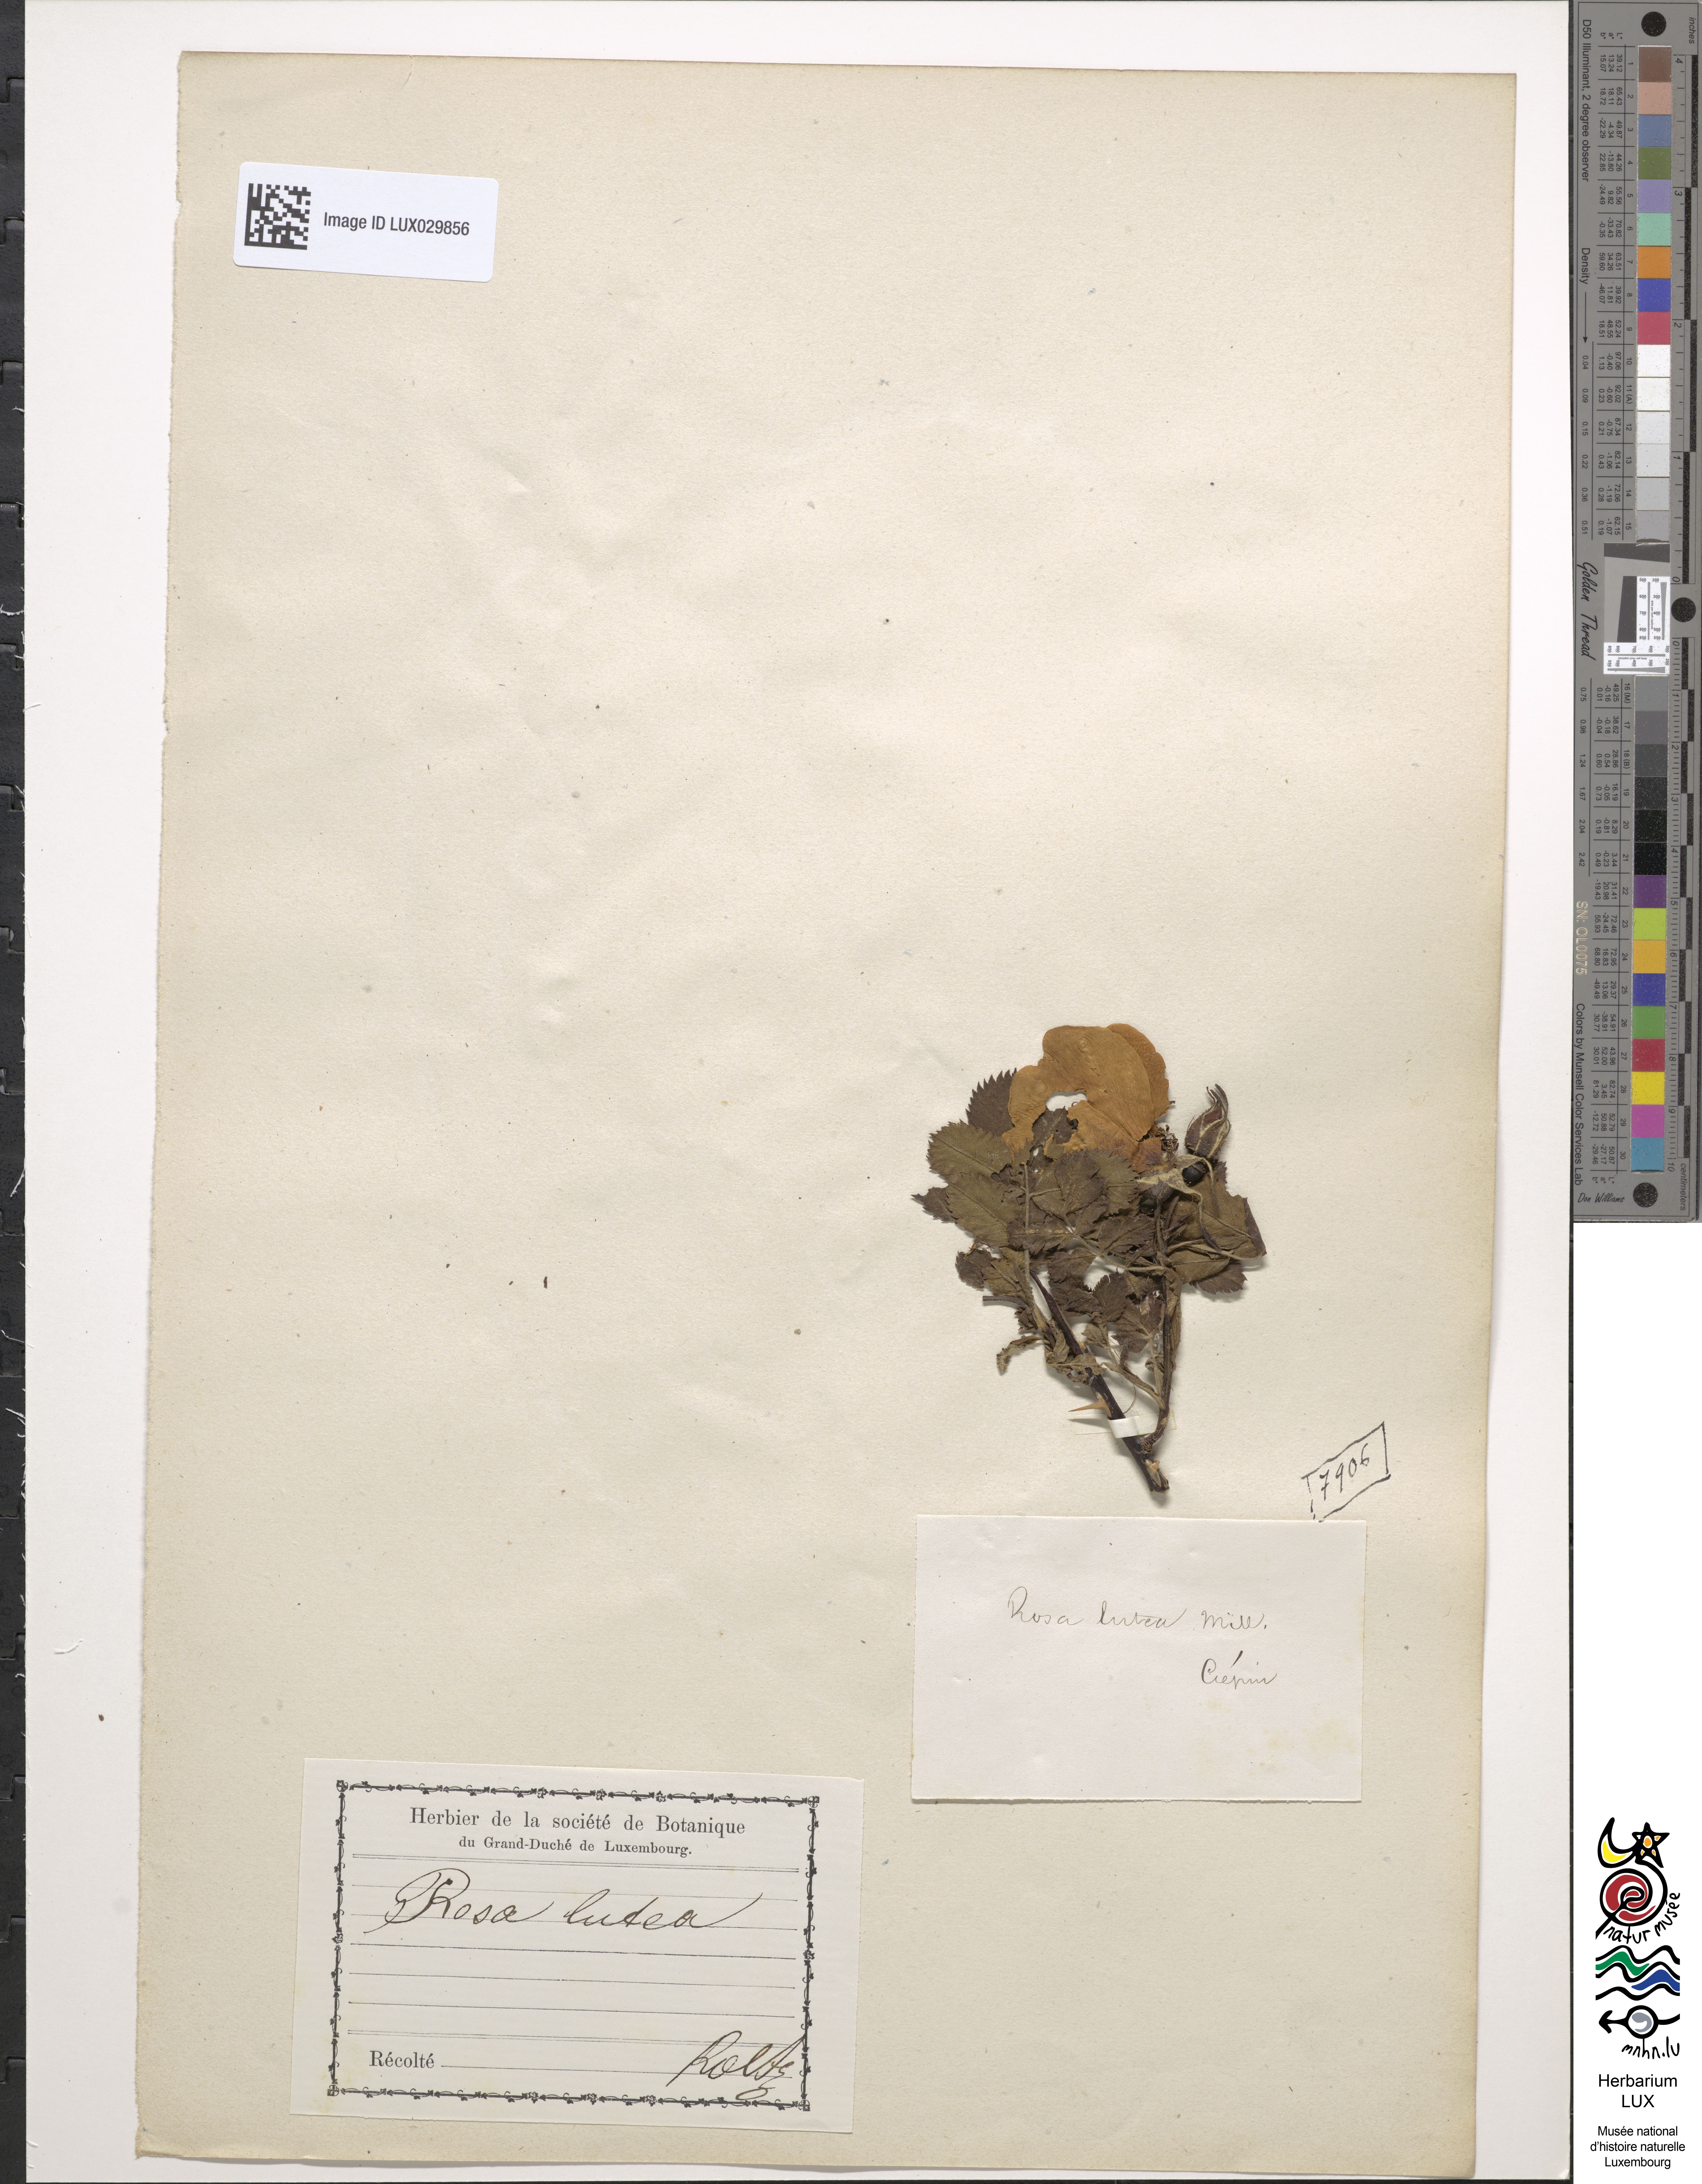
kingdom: Plantae
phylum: Tracheophyta
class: Magnoliopsida
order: Rosales
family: Rosaceae
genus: Rosa
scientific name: Rosa foetida
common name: Persian yellow rose
